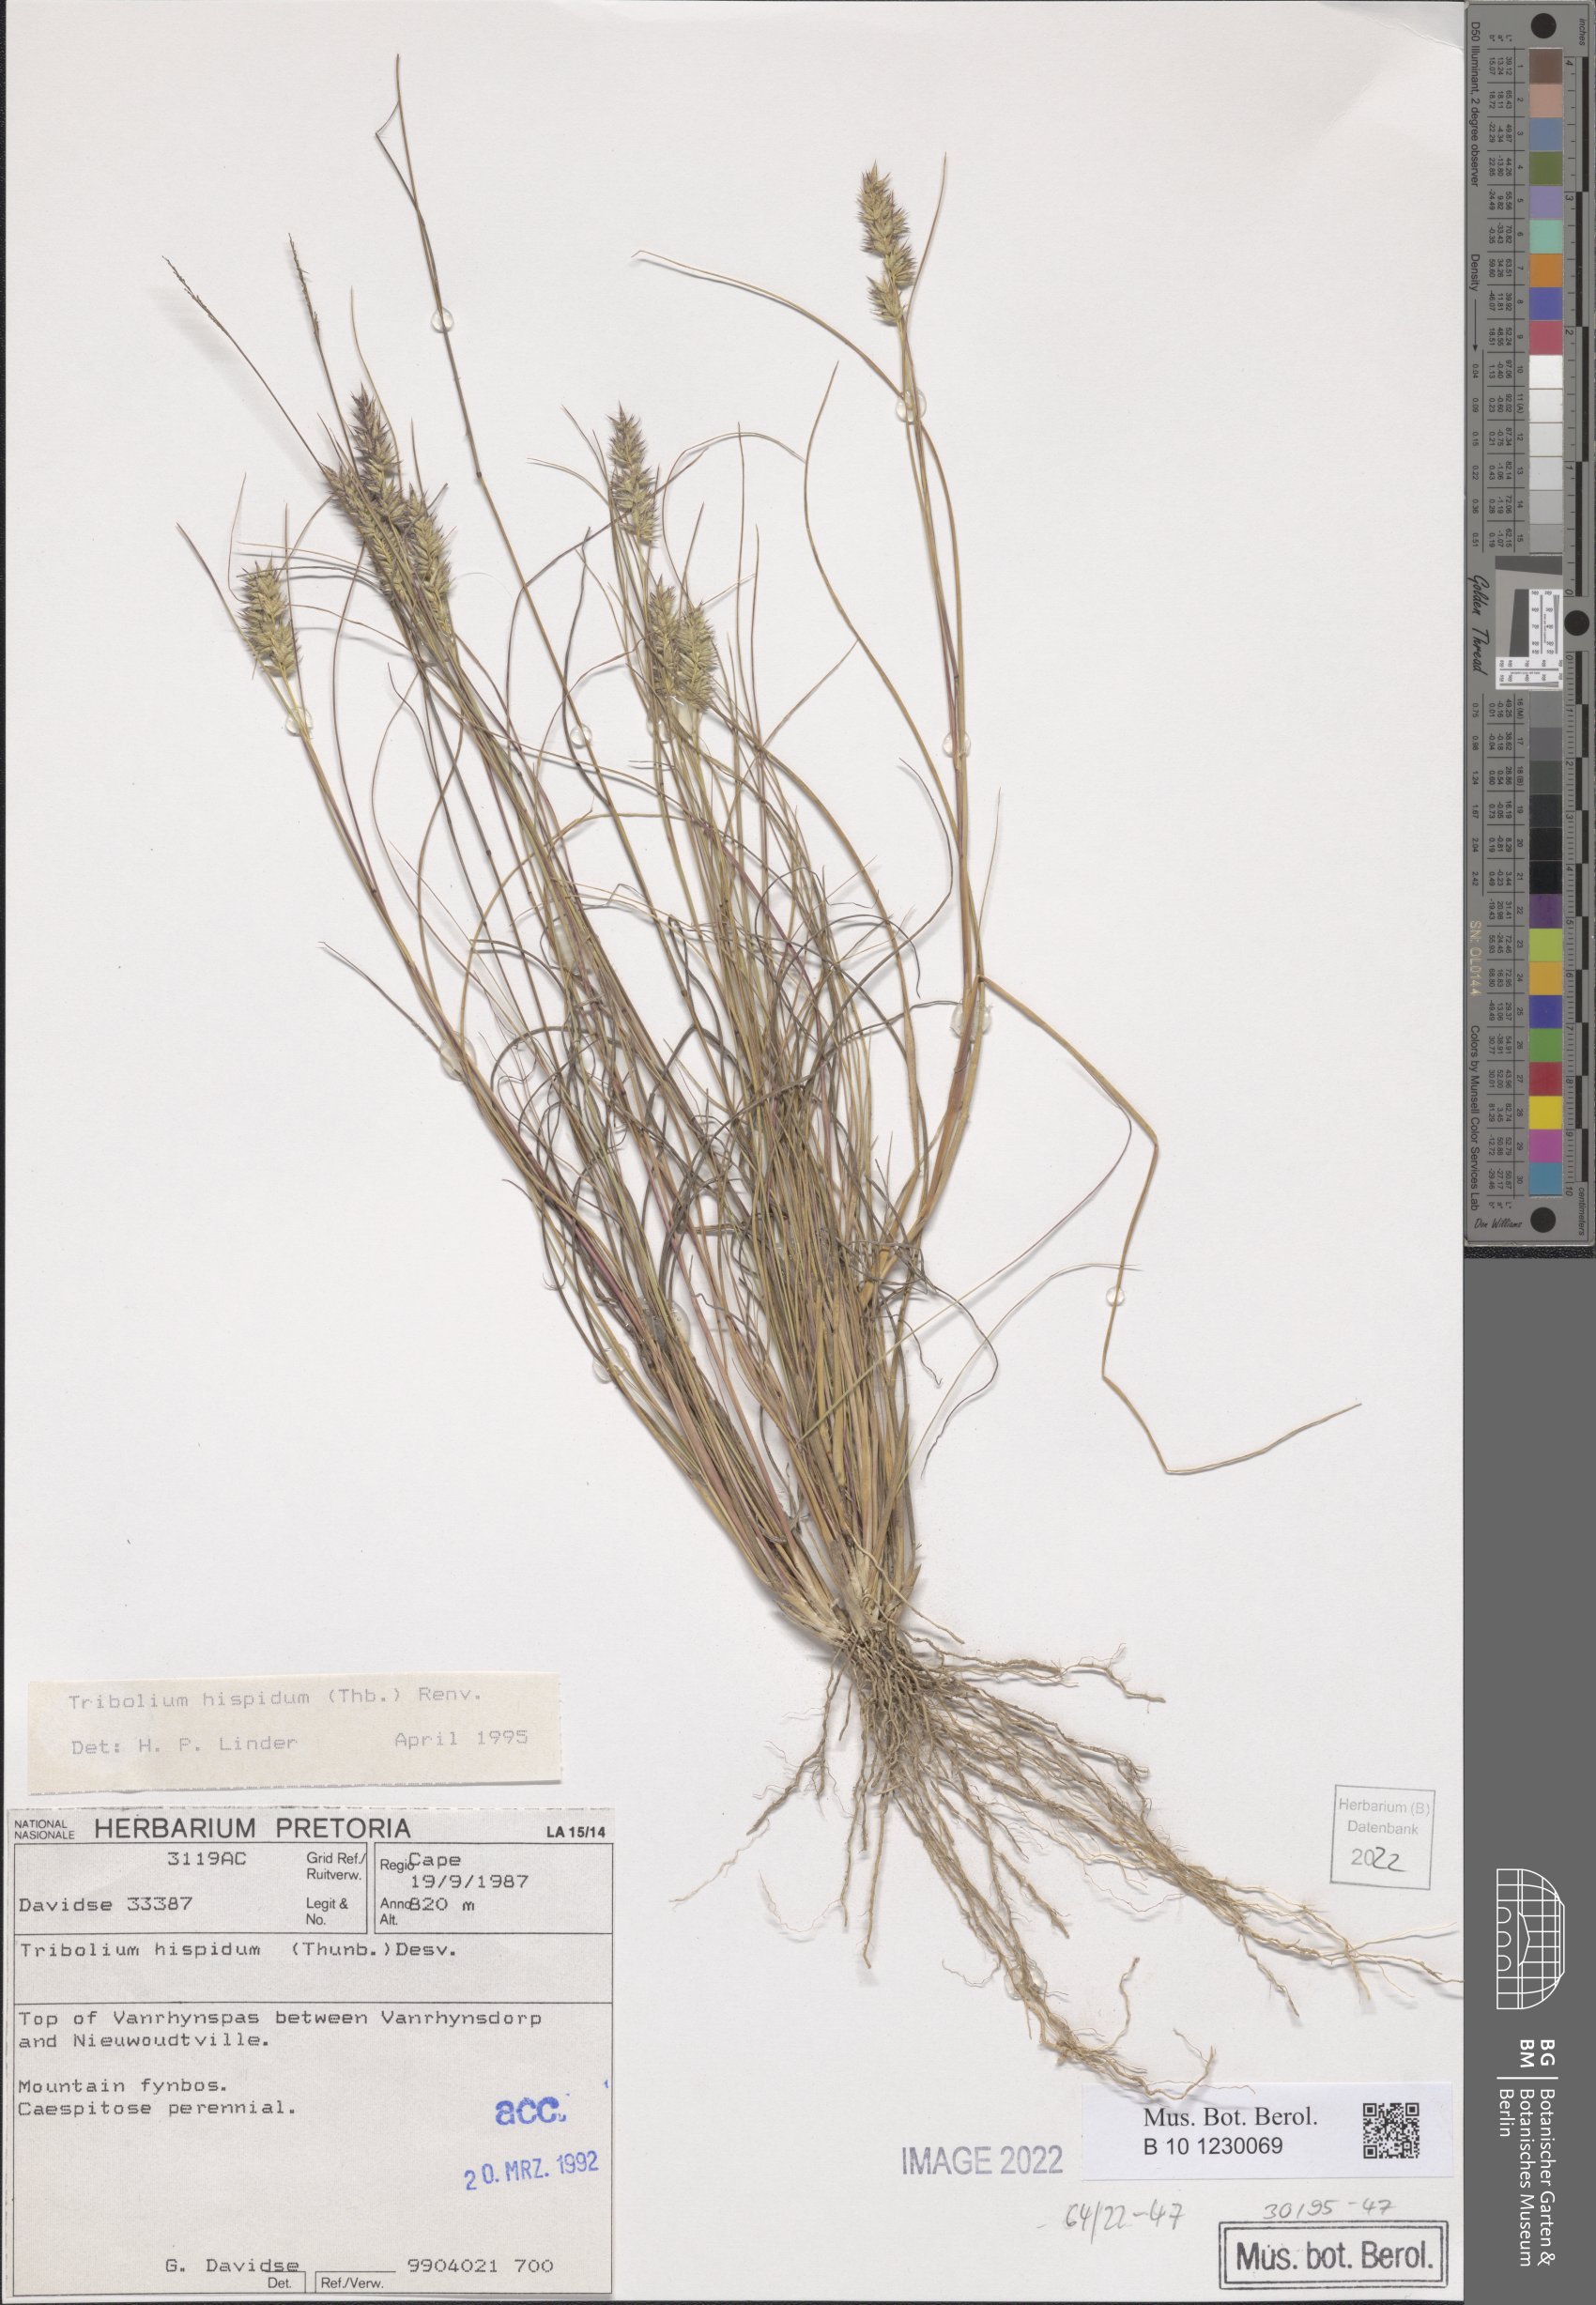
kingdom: Plantae
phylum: Tracheophyta
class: Liliopsida
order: Poales
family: Poaceae
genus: Tribolium
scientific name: Tribolium hispidum
